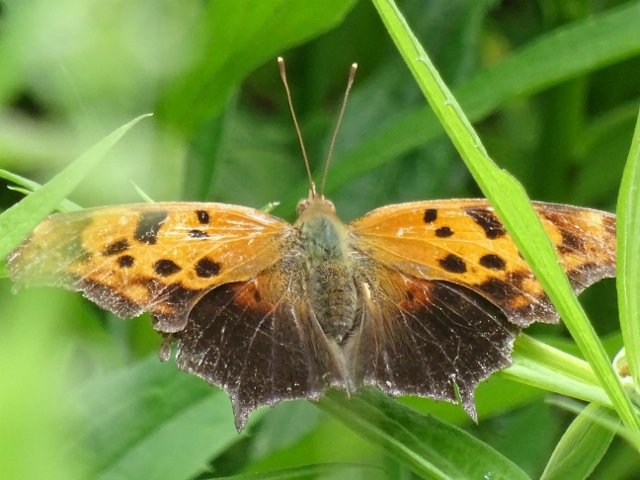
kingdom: Animalia
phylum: Arthropoda
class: Insecta
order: Lepidoptera
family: Nymphalidae
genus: Polygonia
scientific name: Polygonia interrogationis
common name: Question Mark
